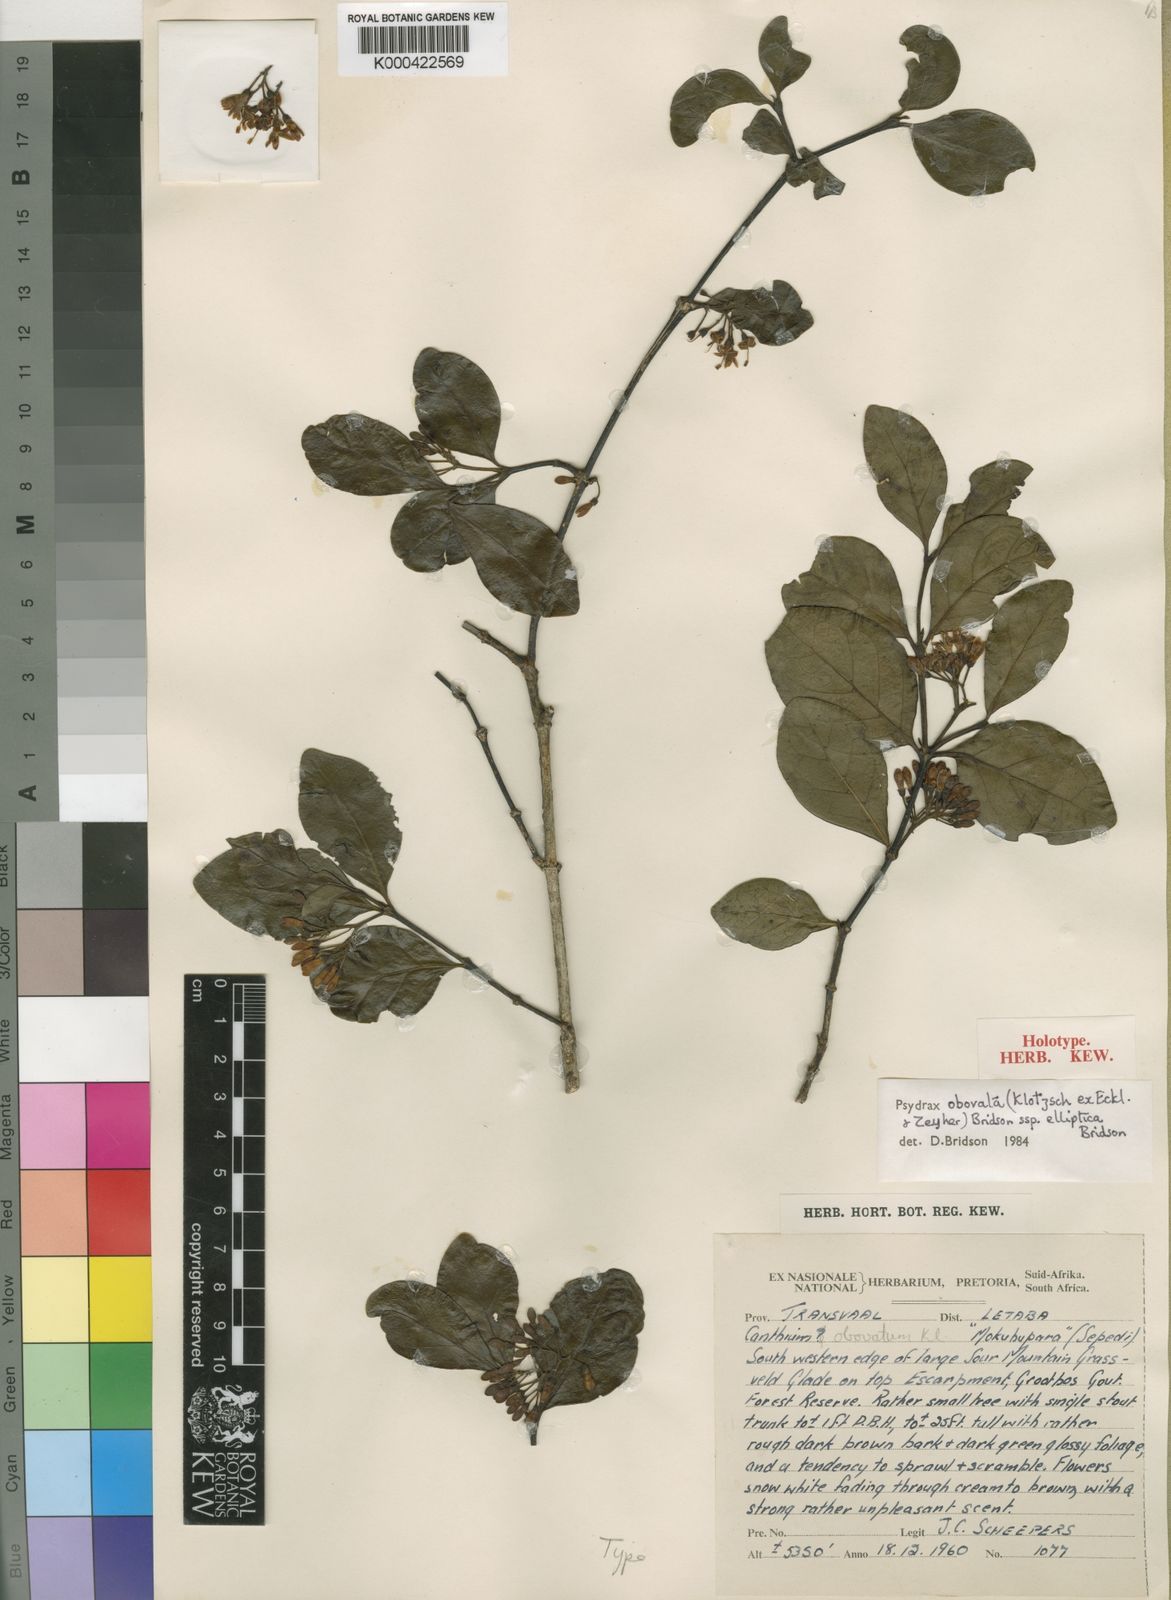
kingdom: Plantae
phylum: Tracheophyta
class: Magnoliopsida
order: Gentianales
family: Rubiaceae
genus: Psydrax
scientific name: Psydrax obovatus
